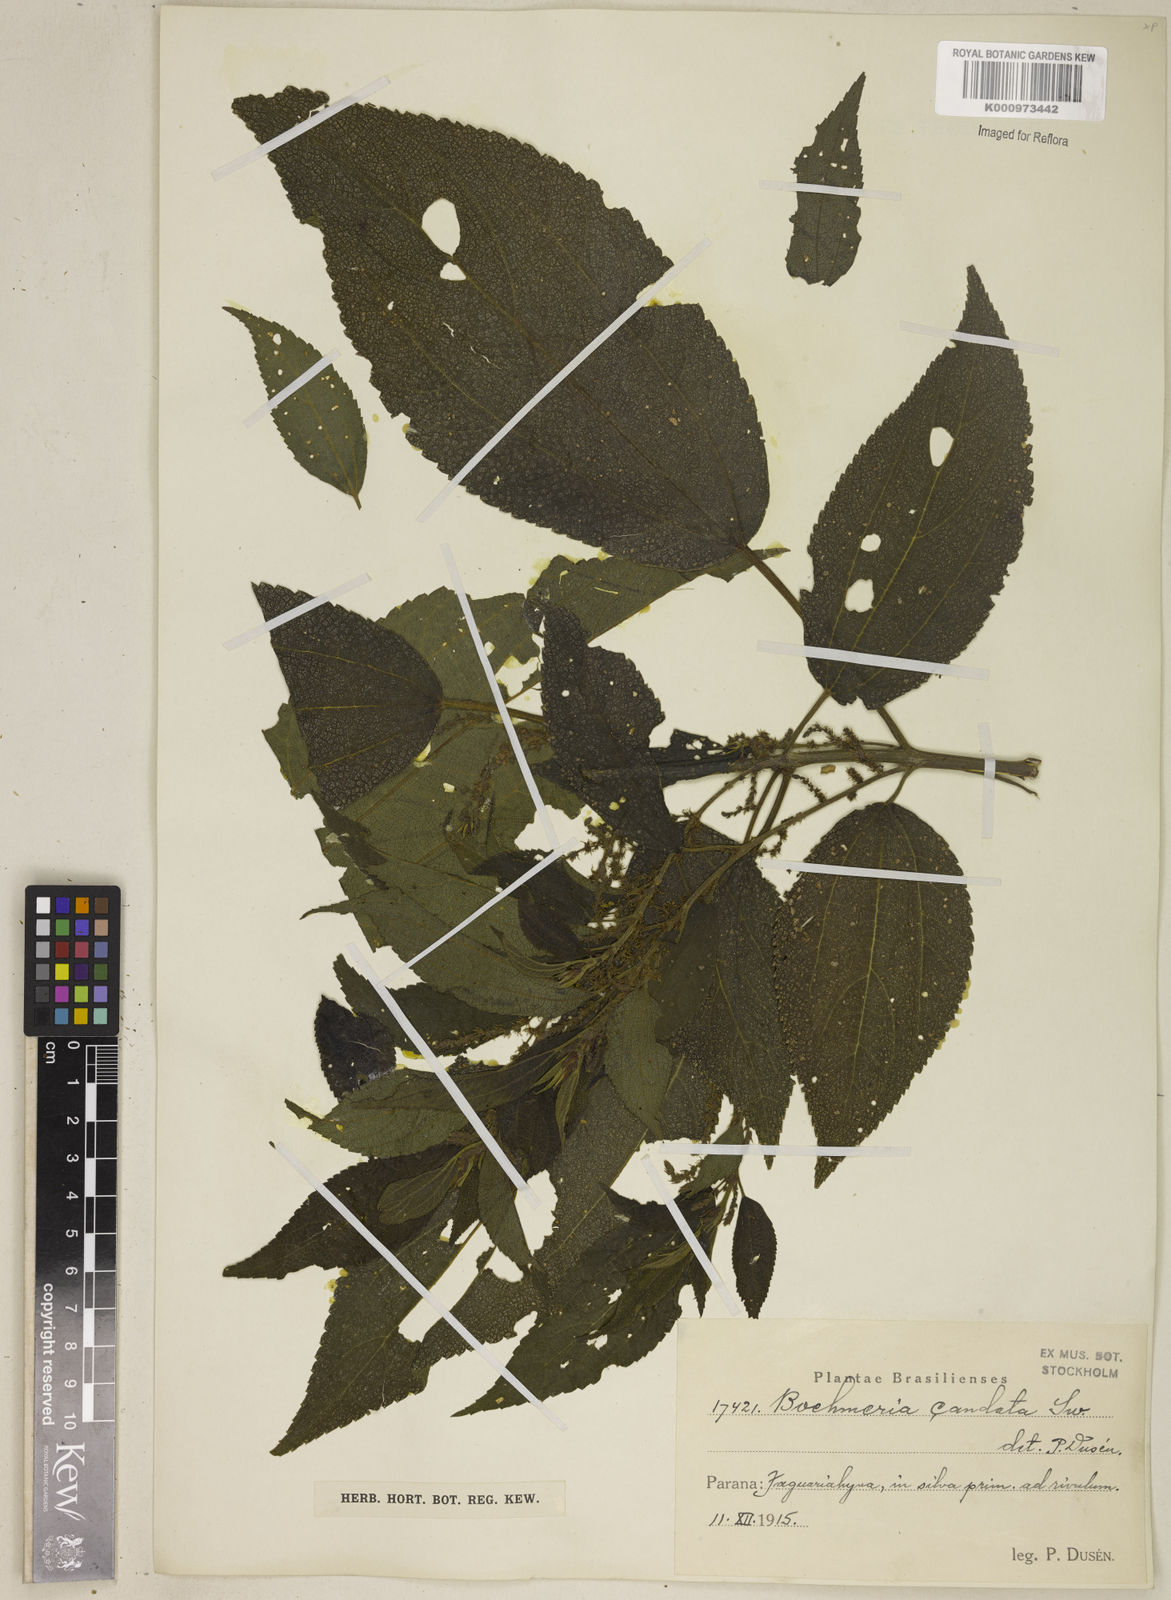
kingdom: Plantae
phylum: Tracheophyta
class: Magnoliopsida
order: Rosales
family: Urticaceae
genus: Boehmeria
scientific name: Boehmeria caudata
